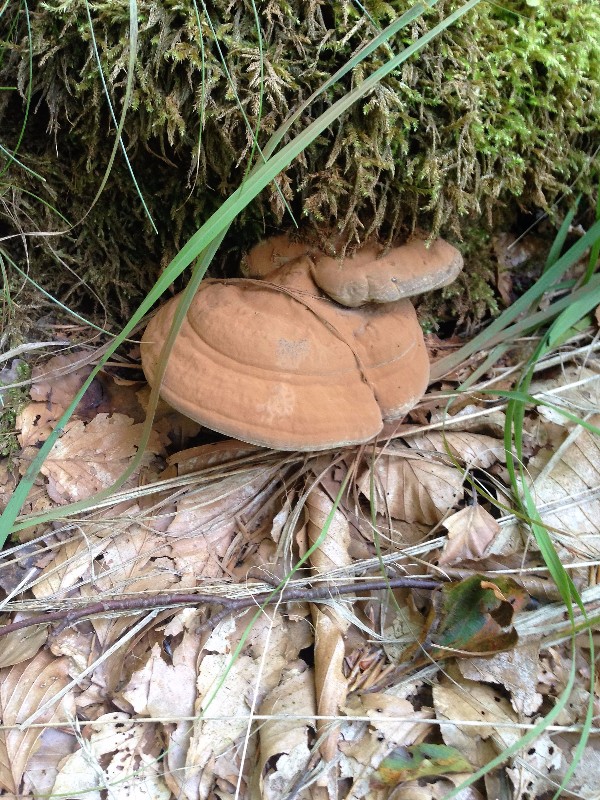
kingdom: Fungi
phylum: Basidiomycota
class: Agaricomycetes
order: Polyporales
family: Polyporaceae
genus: Ganoderma
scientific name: Ganoderma applanatum
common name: flad lakporesvamp
